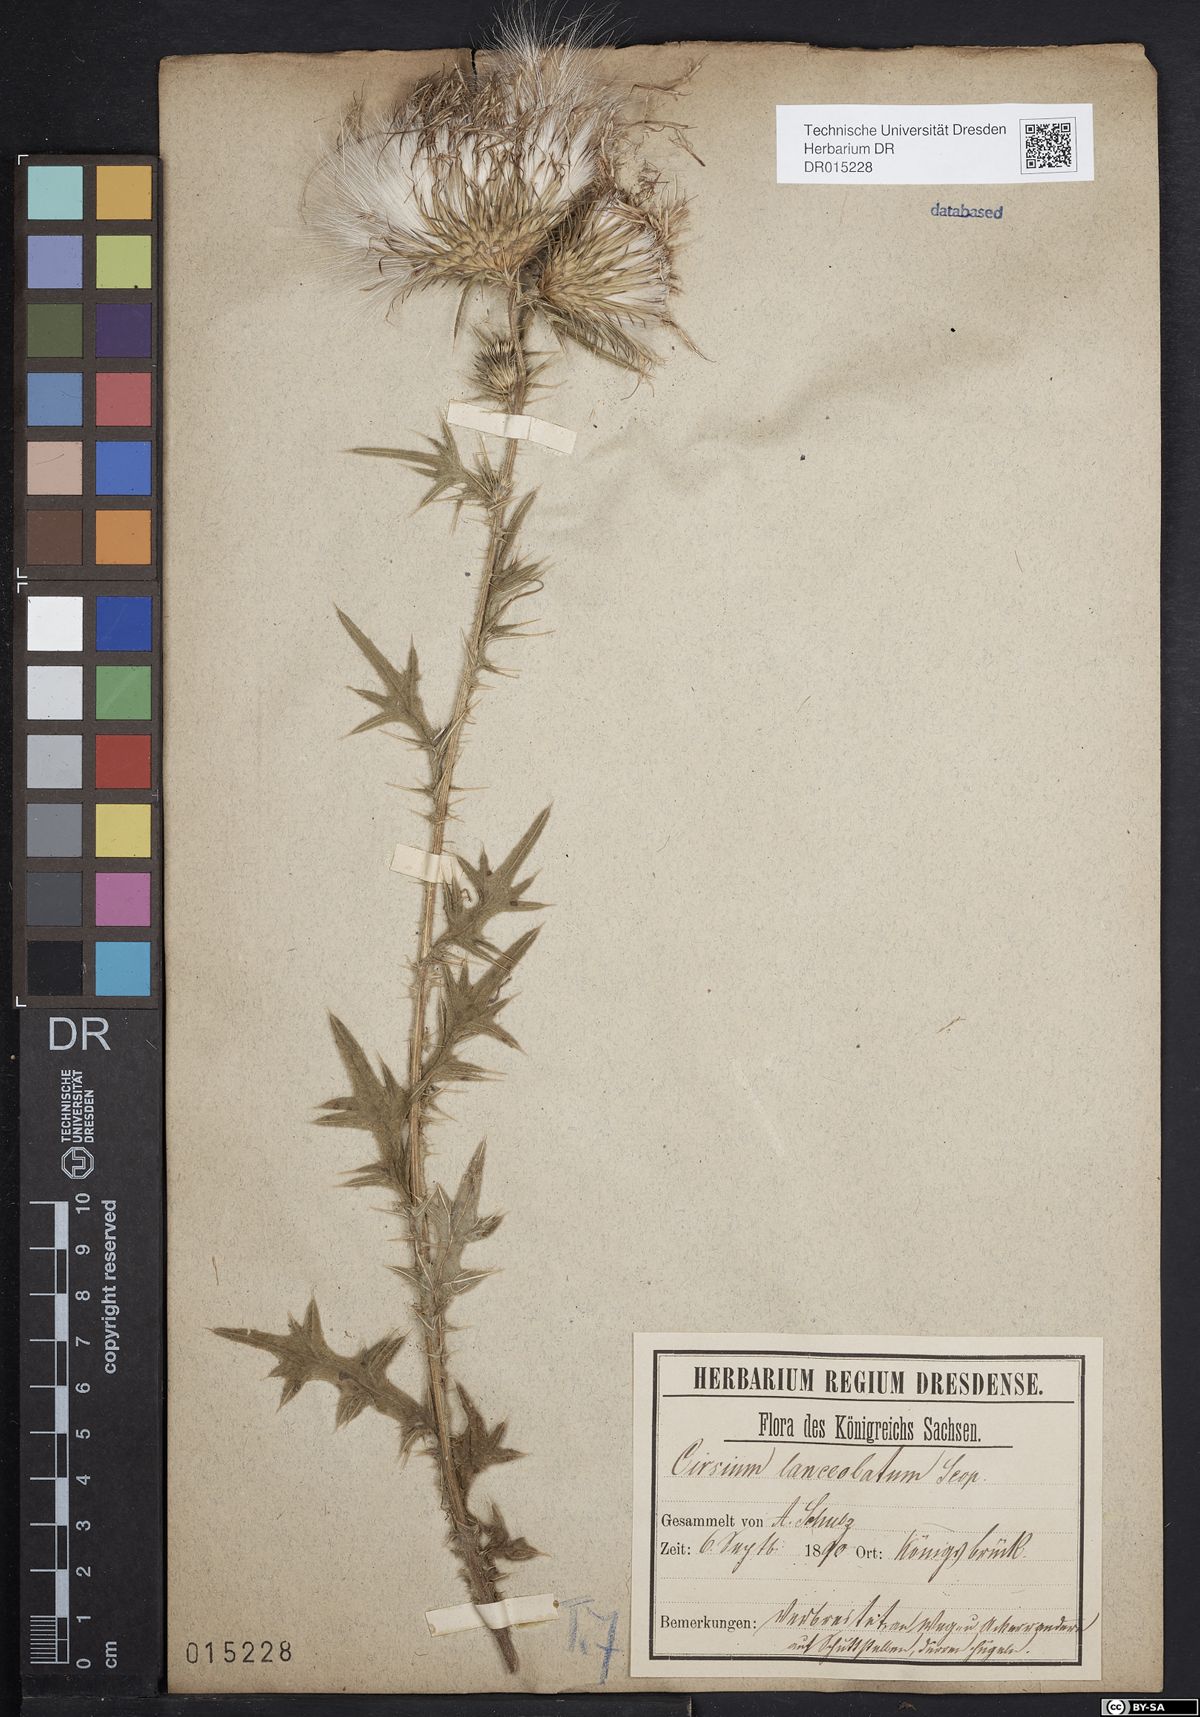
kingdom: Plantae
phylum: Tracheophyta
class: Magnoliopsida
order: Asterales
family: Asteraceae
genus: Cirsium
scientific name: Cirsium vulgare
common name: Bull thistle
